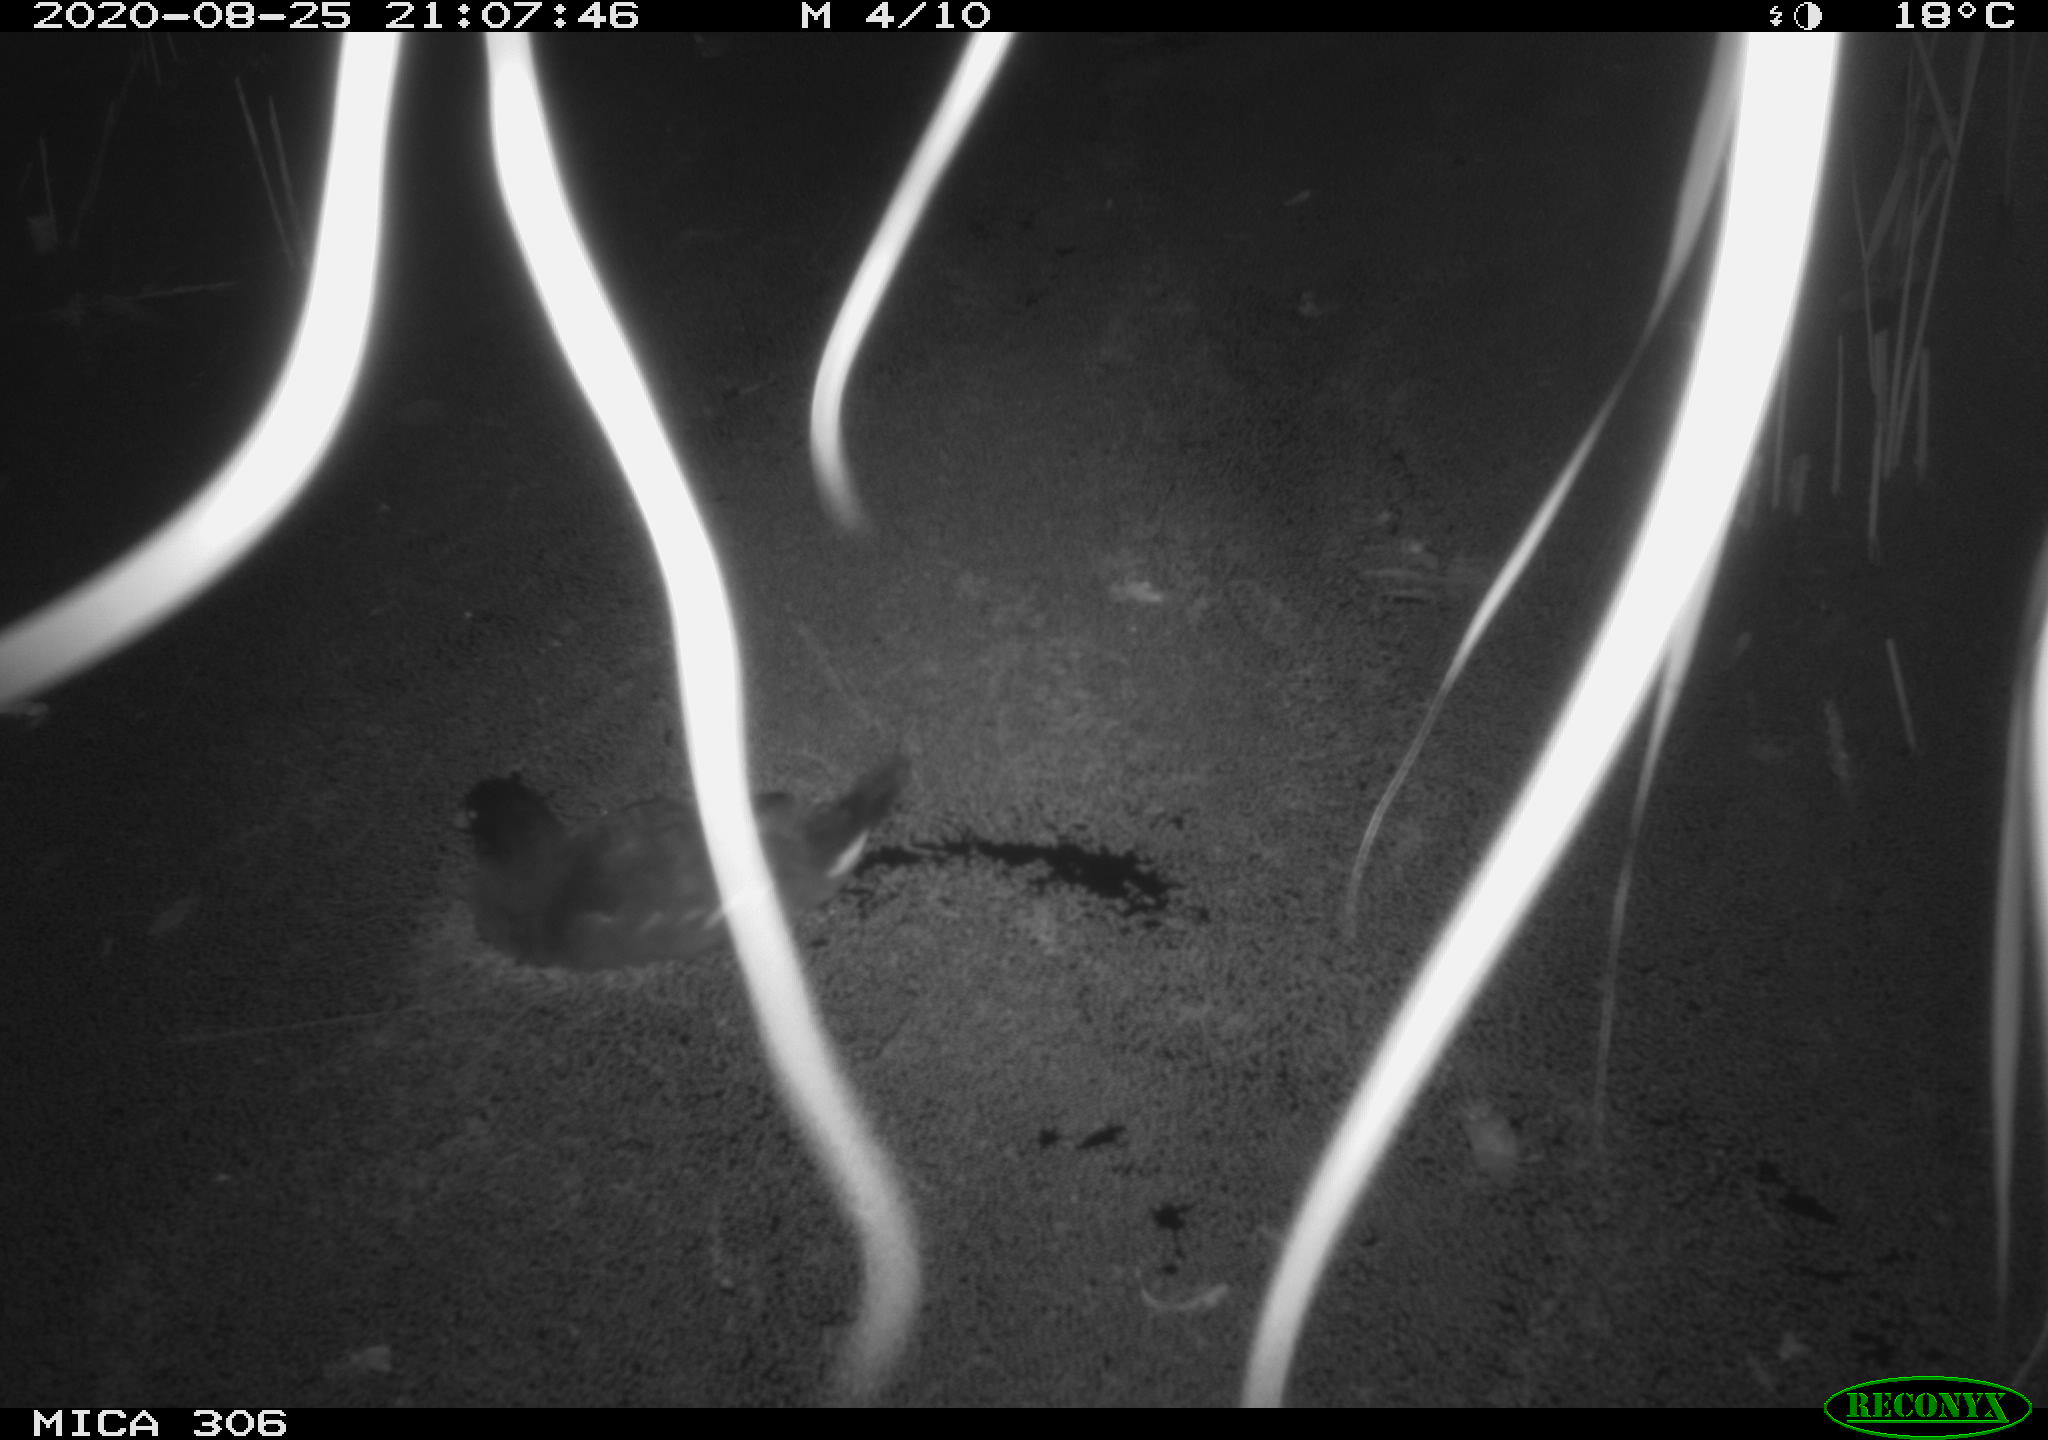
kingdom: Animalia
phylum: Chordata
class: Aves
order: Gruiformes
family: Rallidae
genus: Fulica
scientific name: Fulica atra
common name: Eurasian coot
